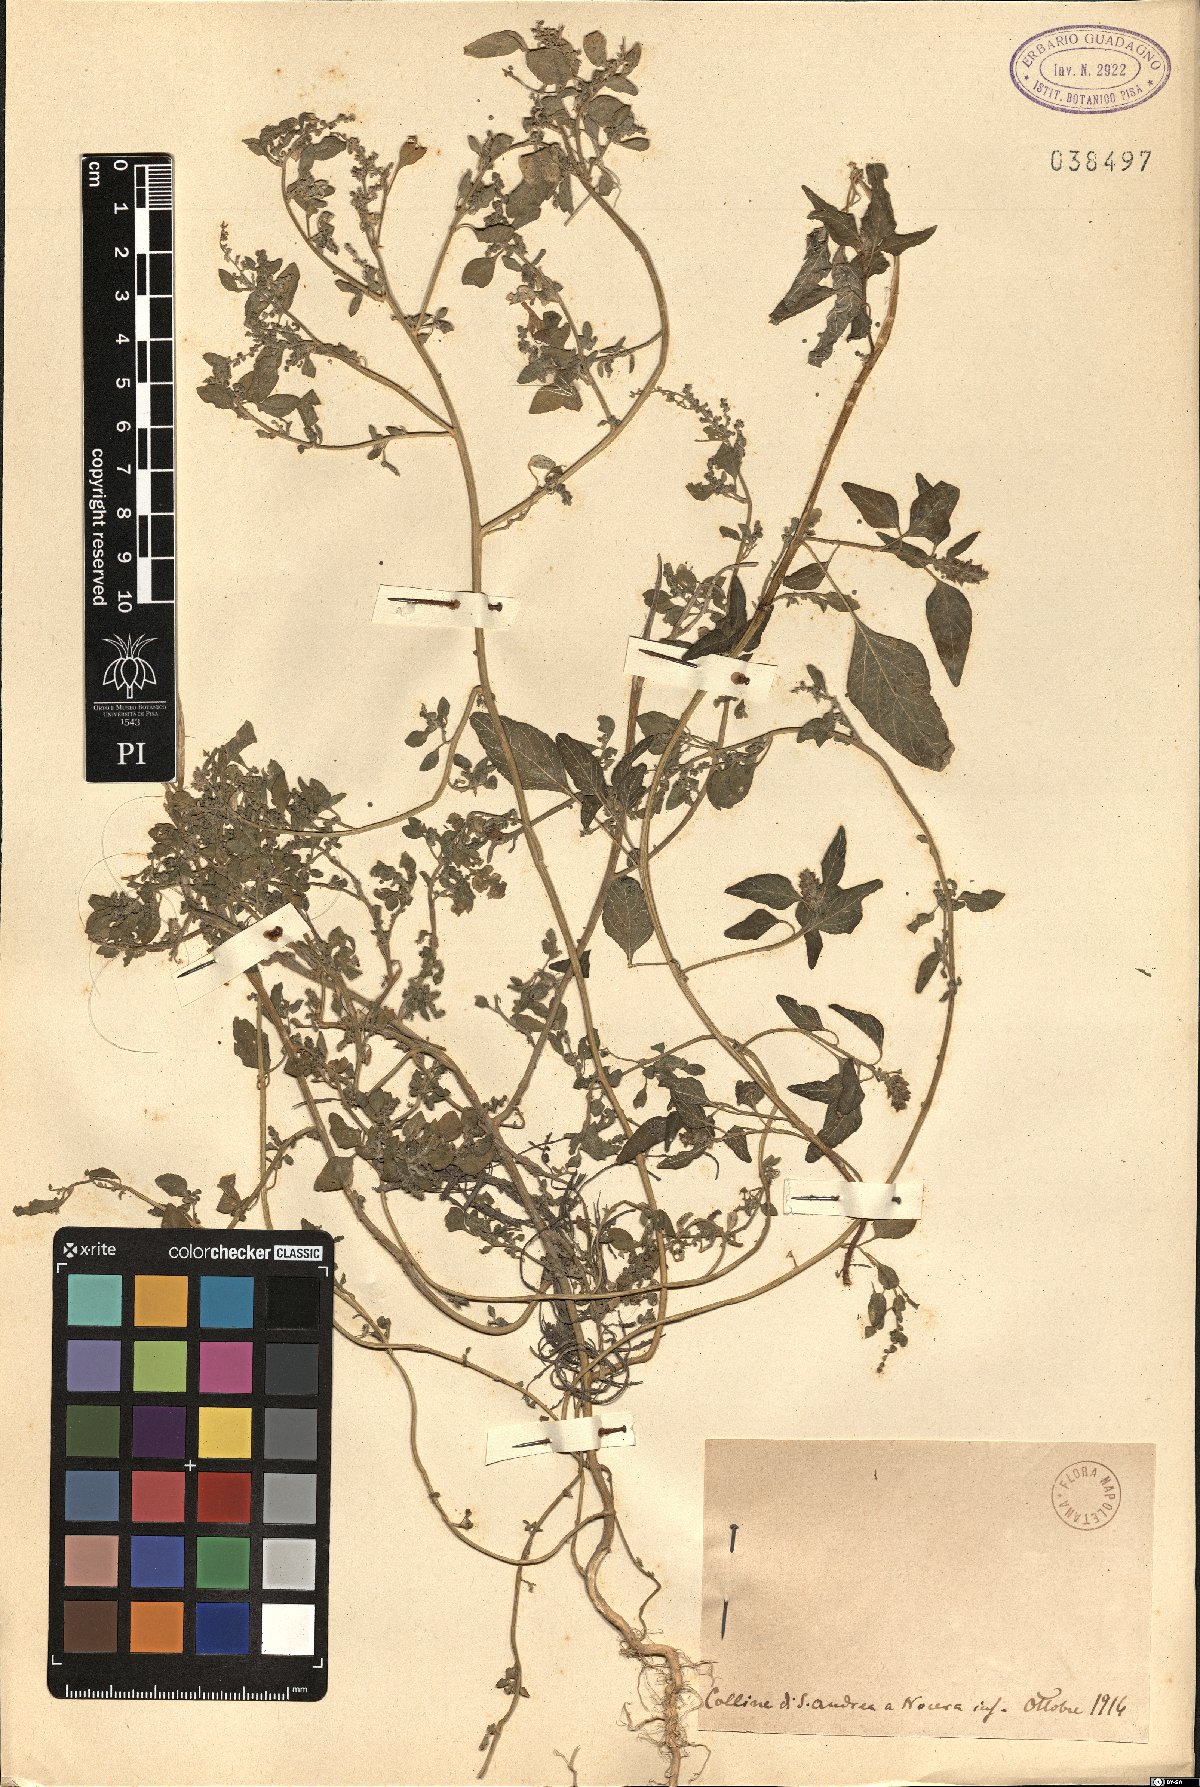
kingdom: Plantae
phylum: Tracheophyta
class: Magnoliopsida
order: Caryophyllales
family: Amaranthaceae
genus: Dysphania
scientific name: Dysphania
